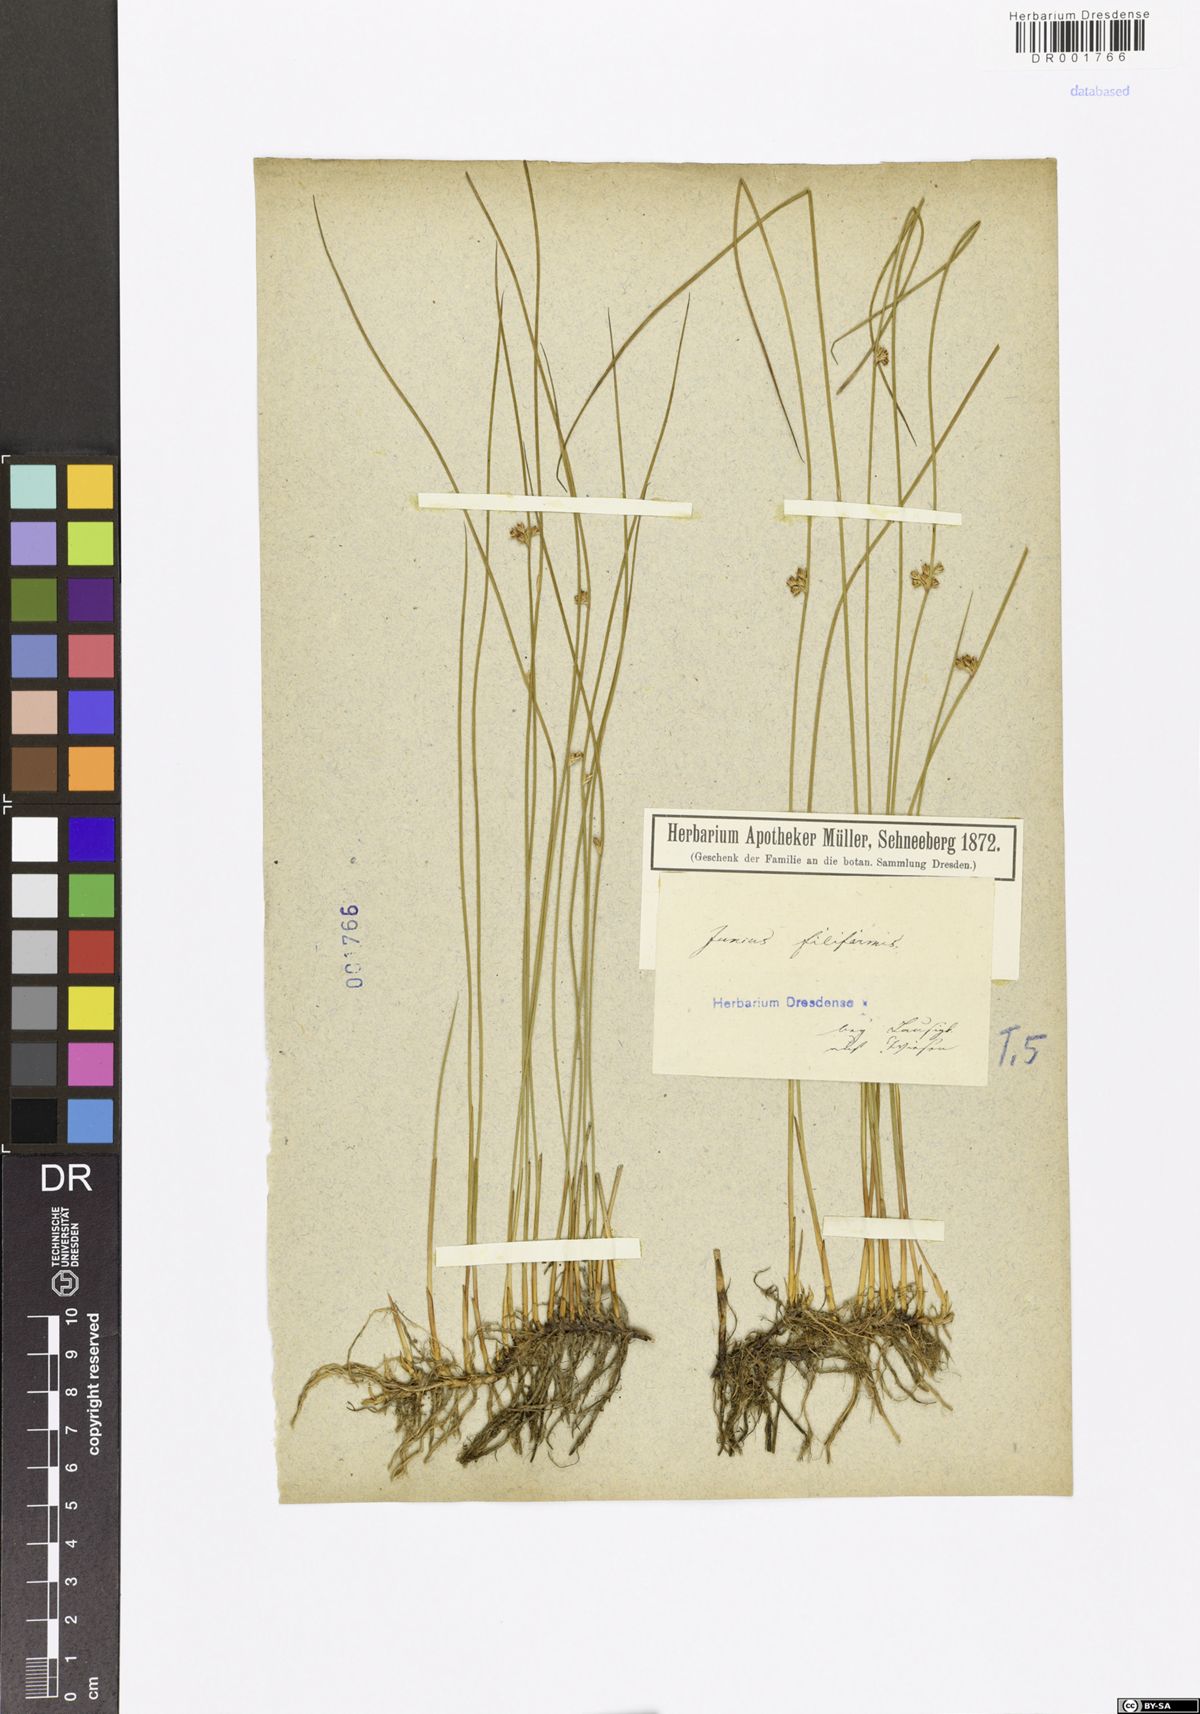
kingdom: Plantae
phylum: Tracheophyta
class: Liliopsida
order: Poales
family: Juncaceae
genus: Juncus
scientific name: Juncus filiformis
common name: Thread rush
